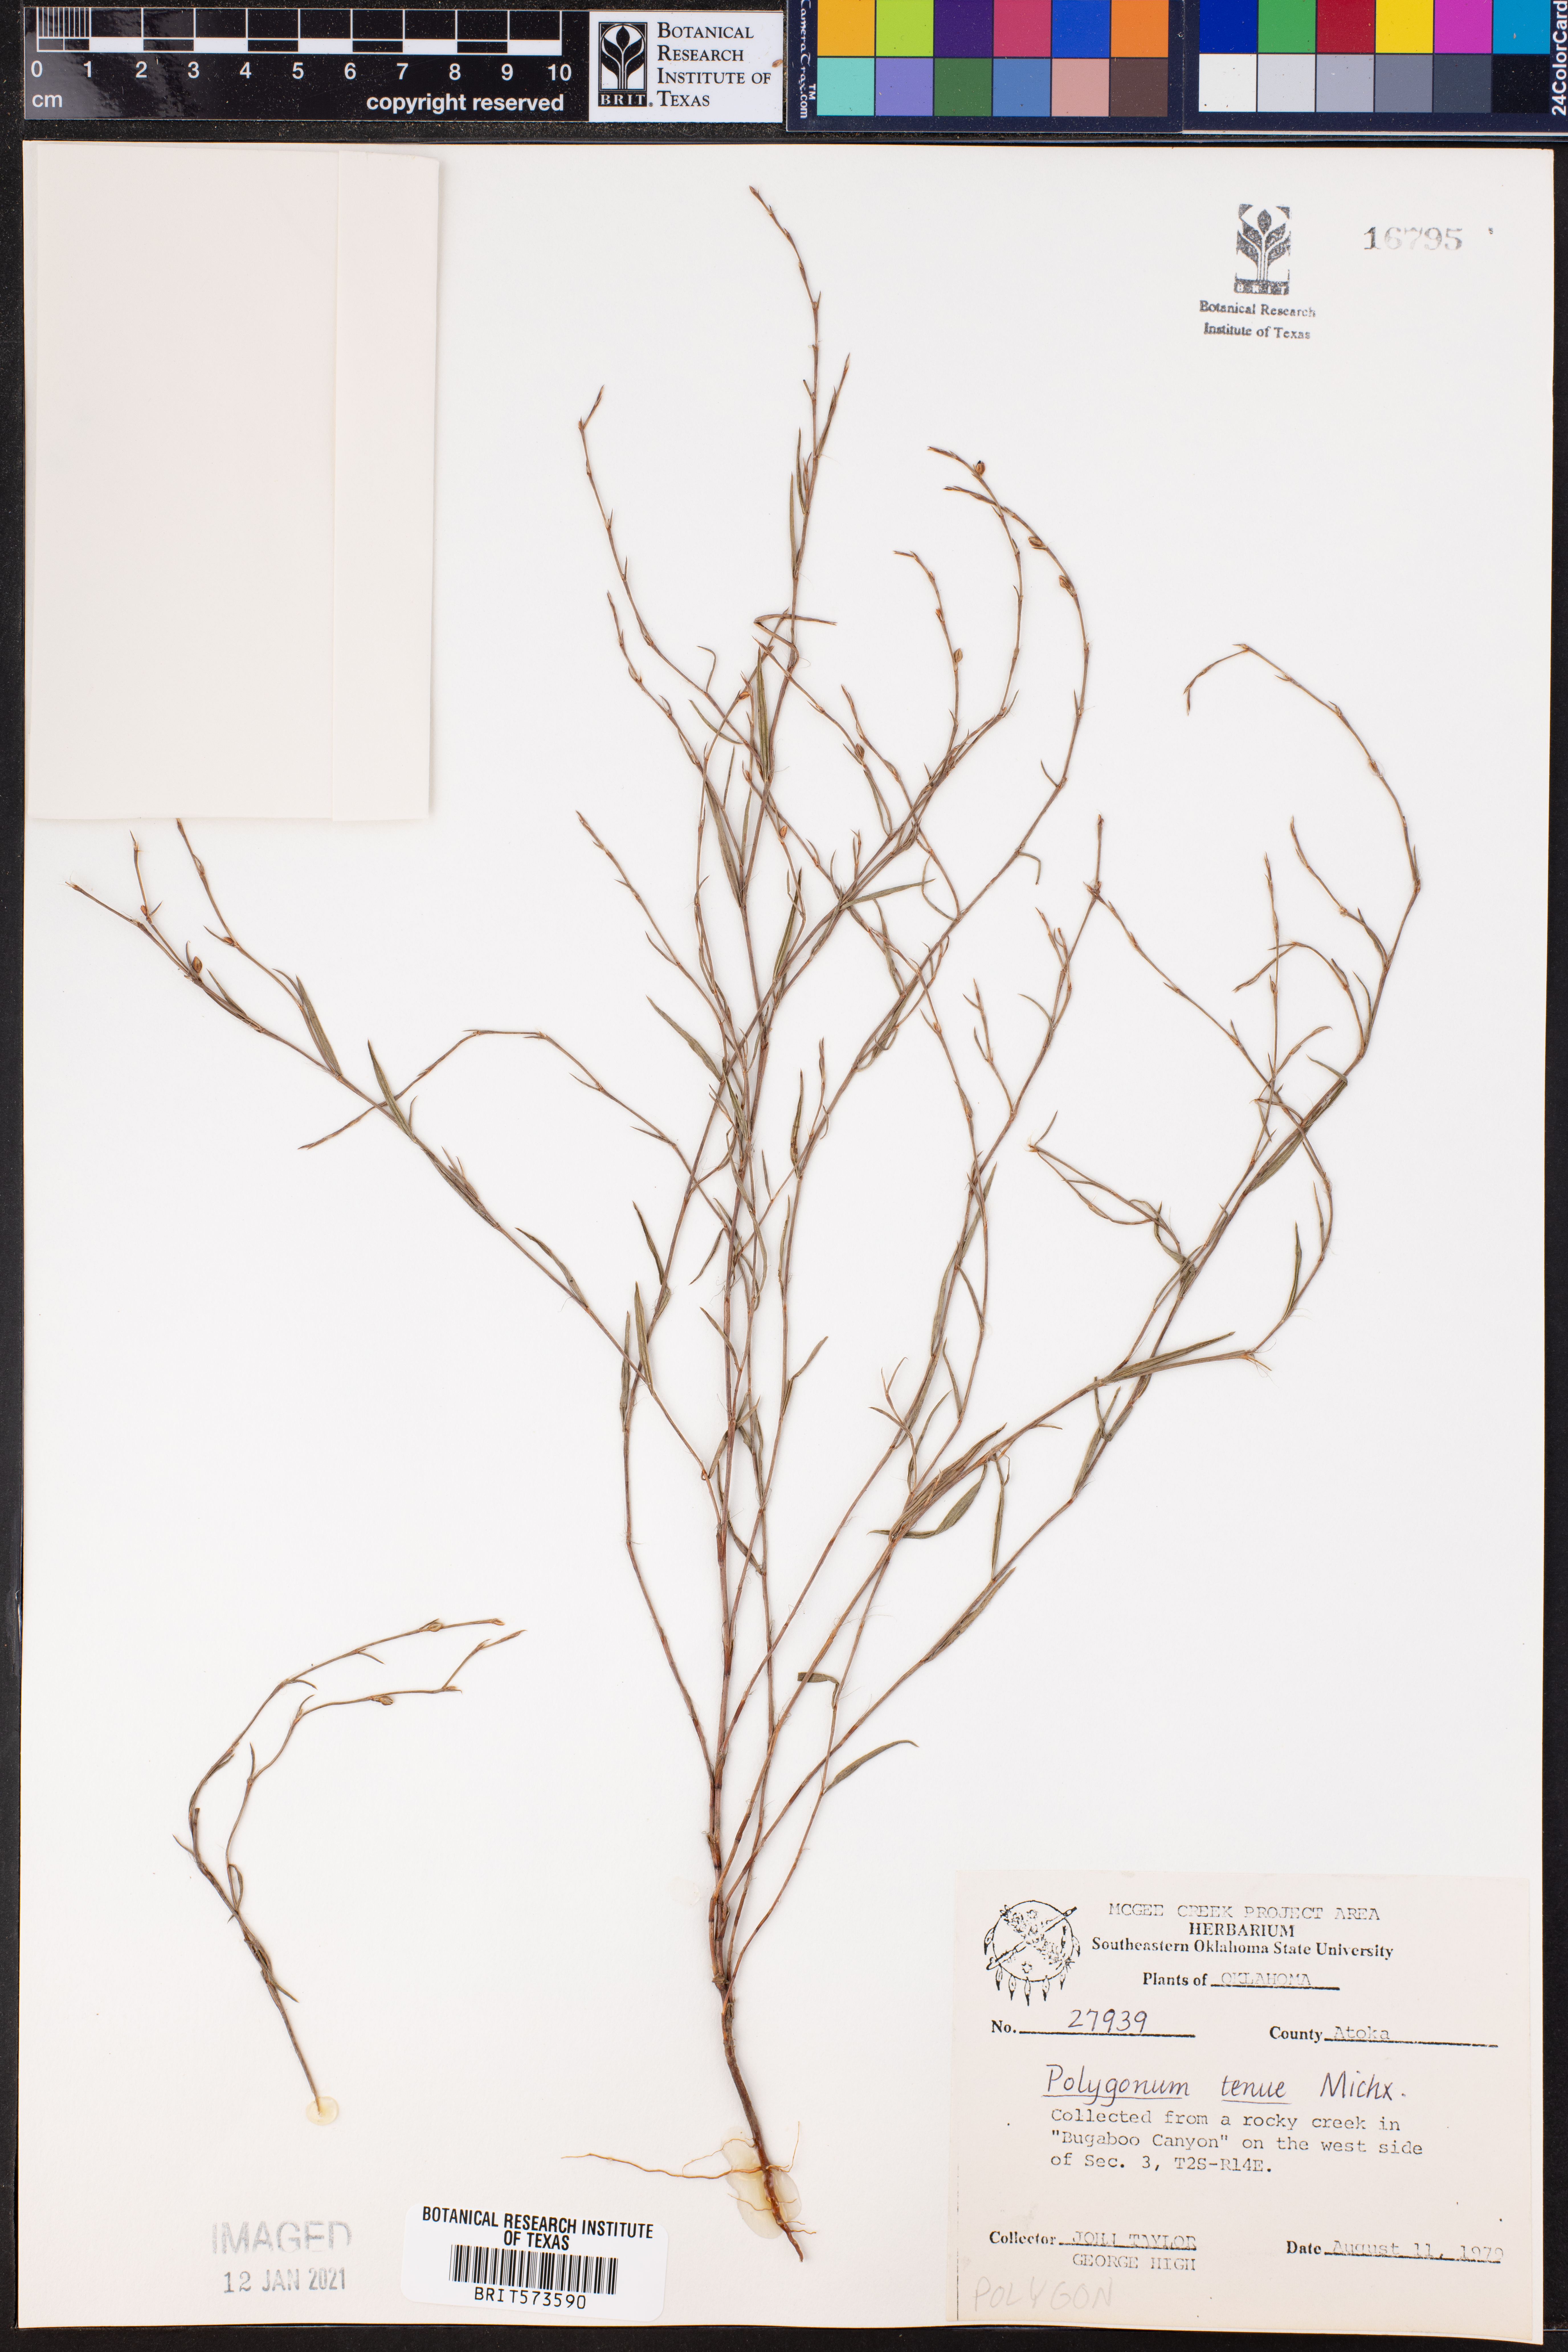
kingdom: Plantae
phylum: Tracheophyta
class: Magnoliopsida
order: Caryophyllales
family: Polygonaceae
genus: Polygonum
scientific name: Polygonum tenue
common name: Pleat-leaved knotweed
